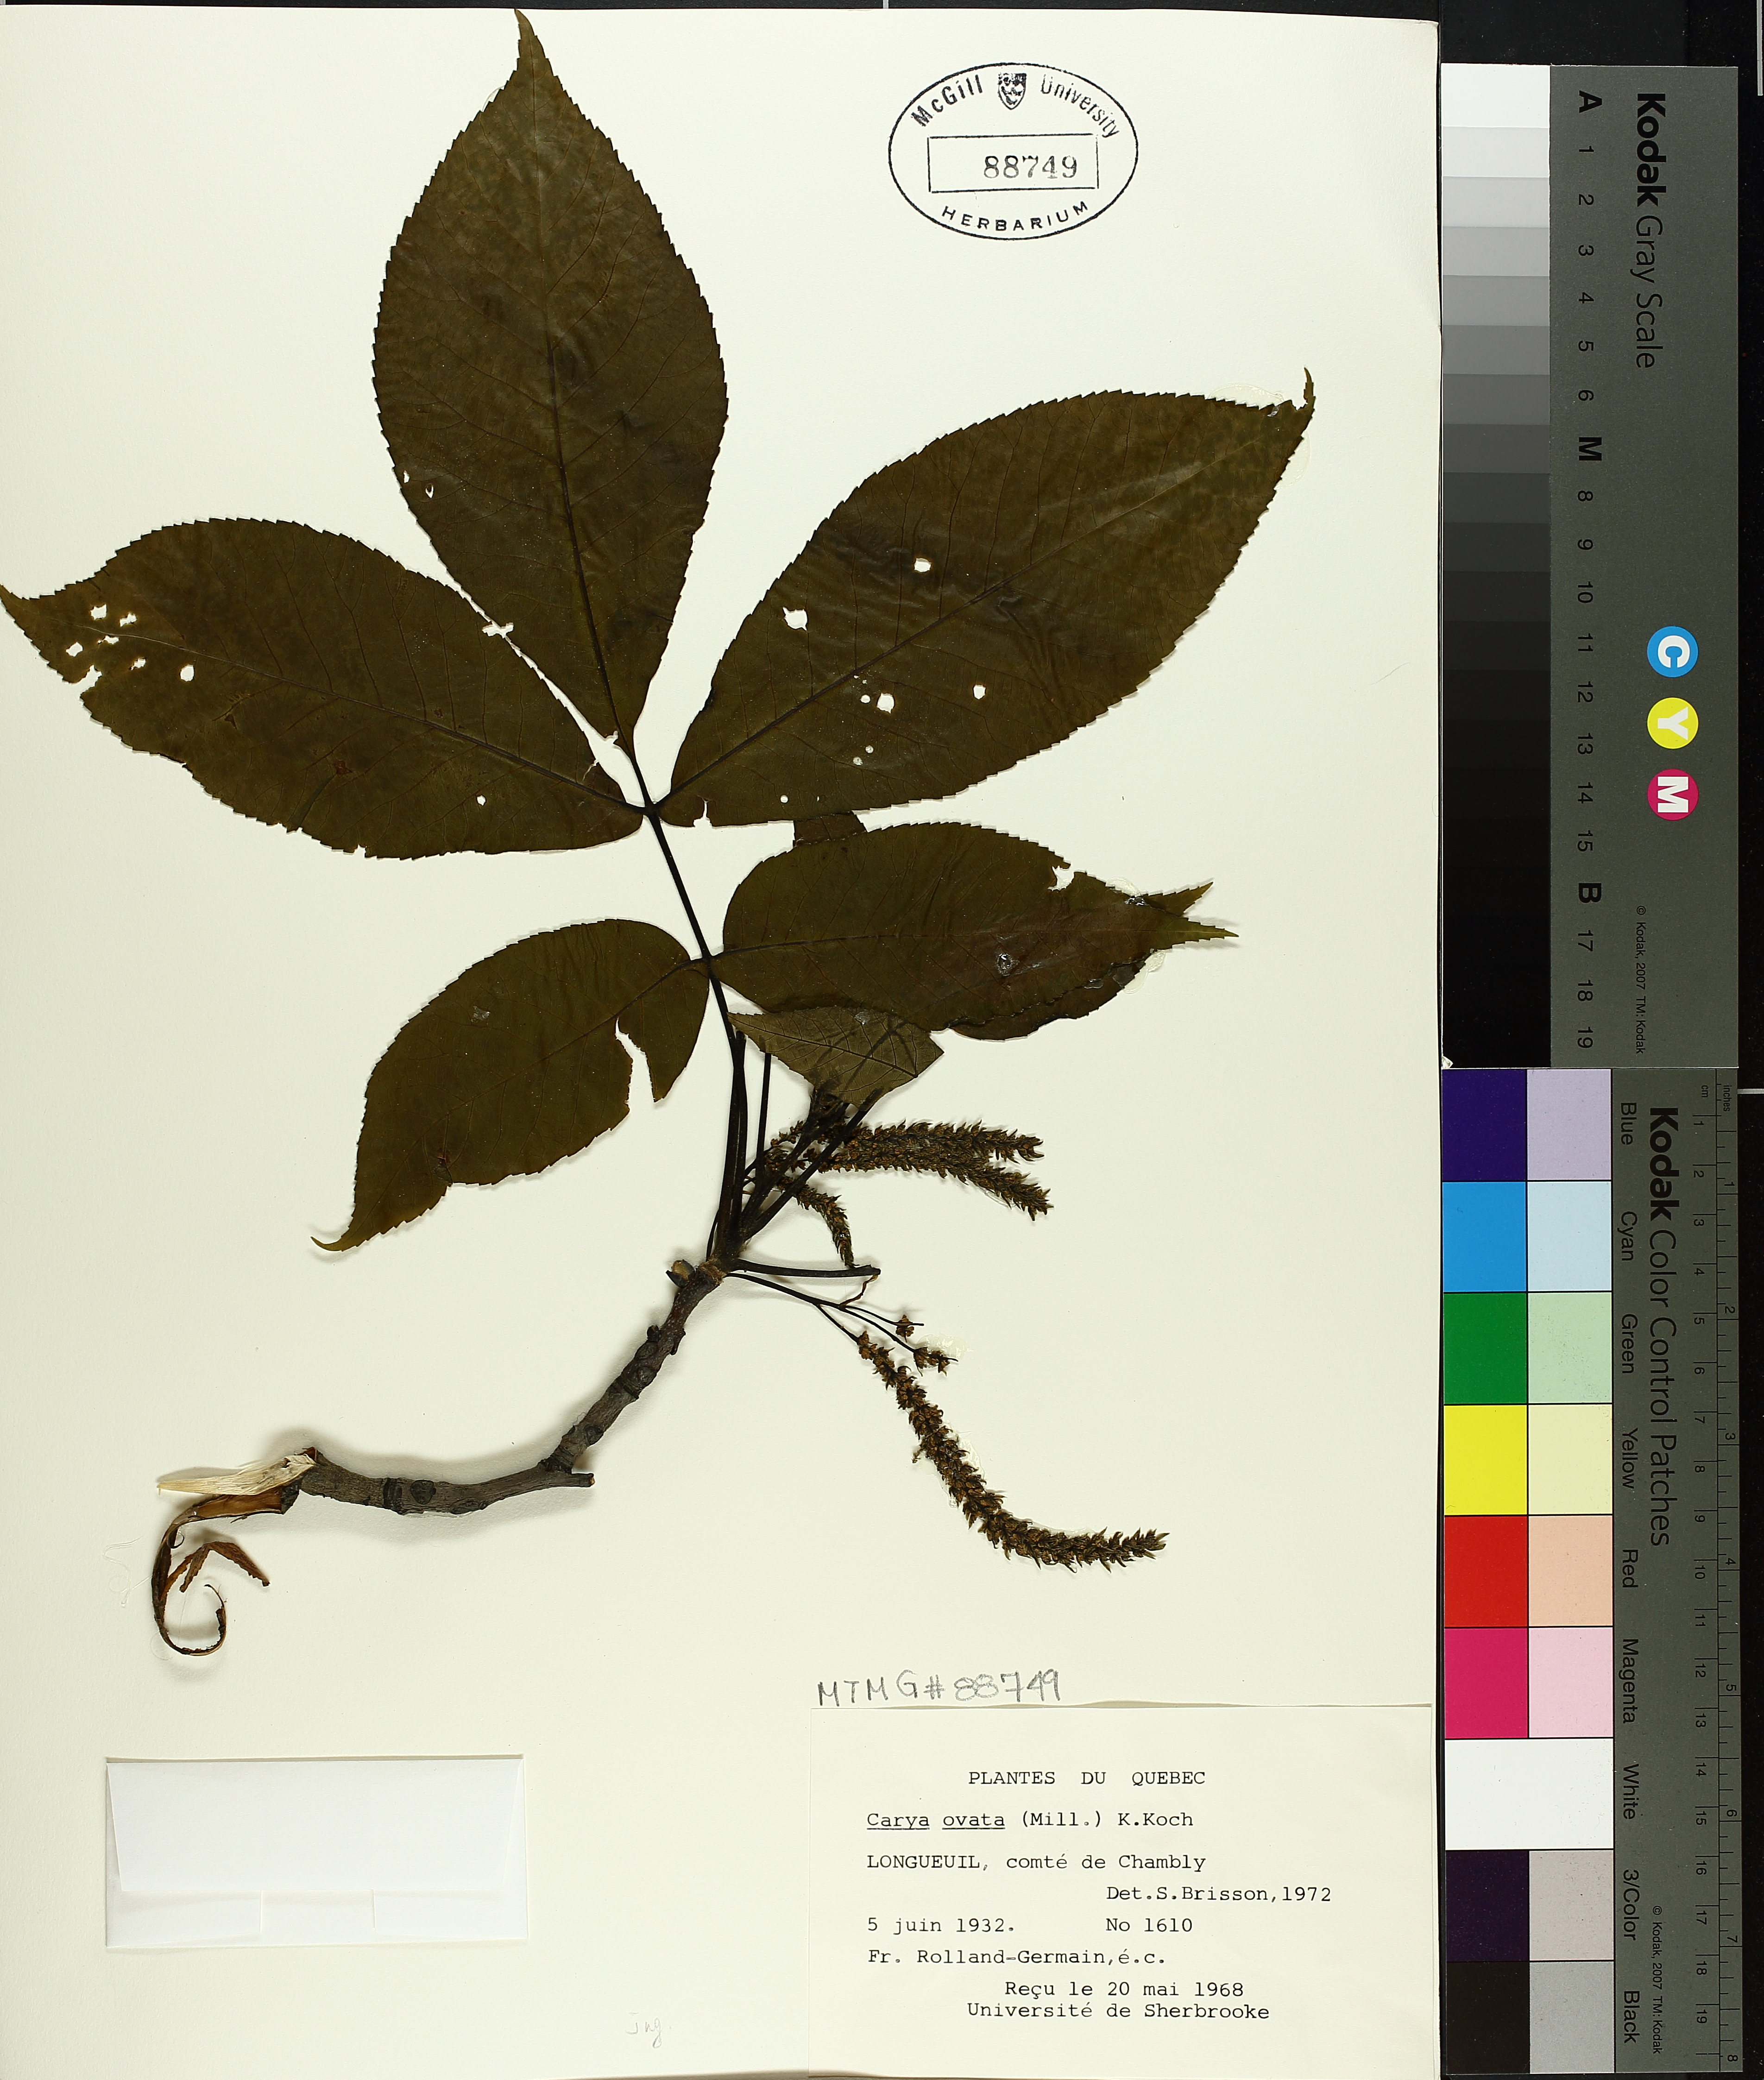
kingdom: Plantae
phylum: Tracheophyta
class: Magnoliopsida
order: Fagales
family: Juglandaceae
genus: Carya
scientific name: Carya ovata
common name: Shagbark hickory
